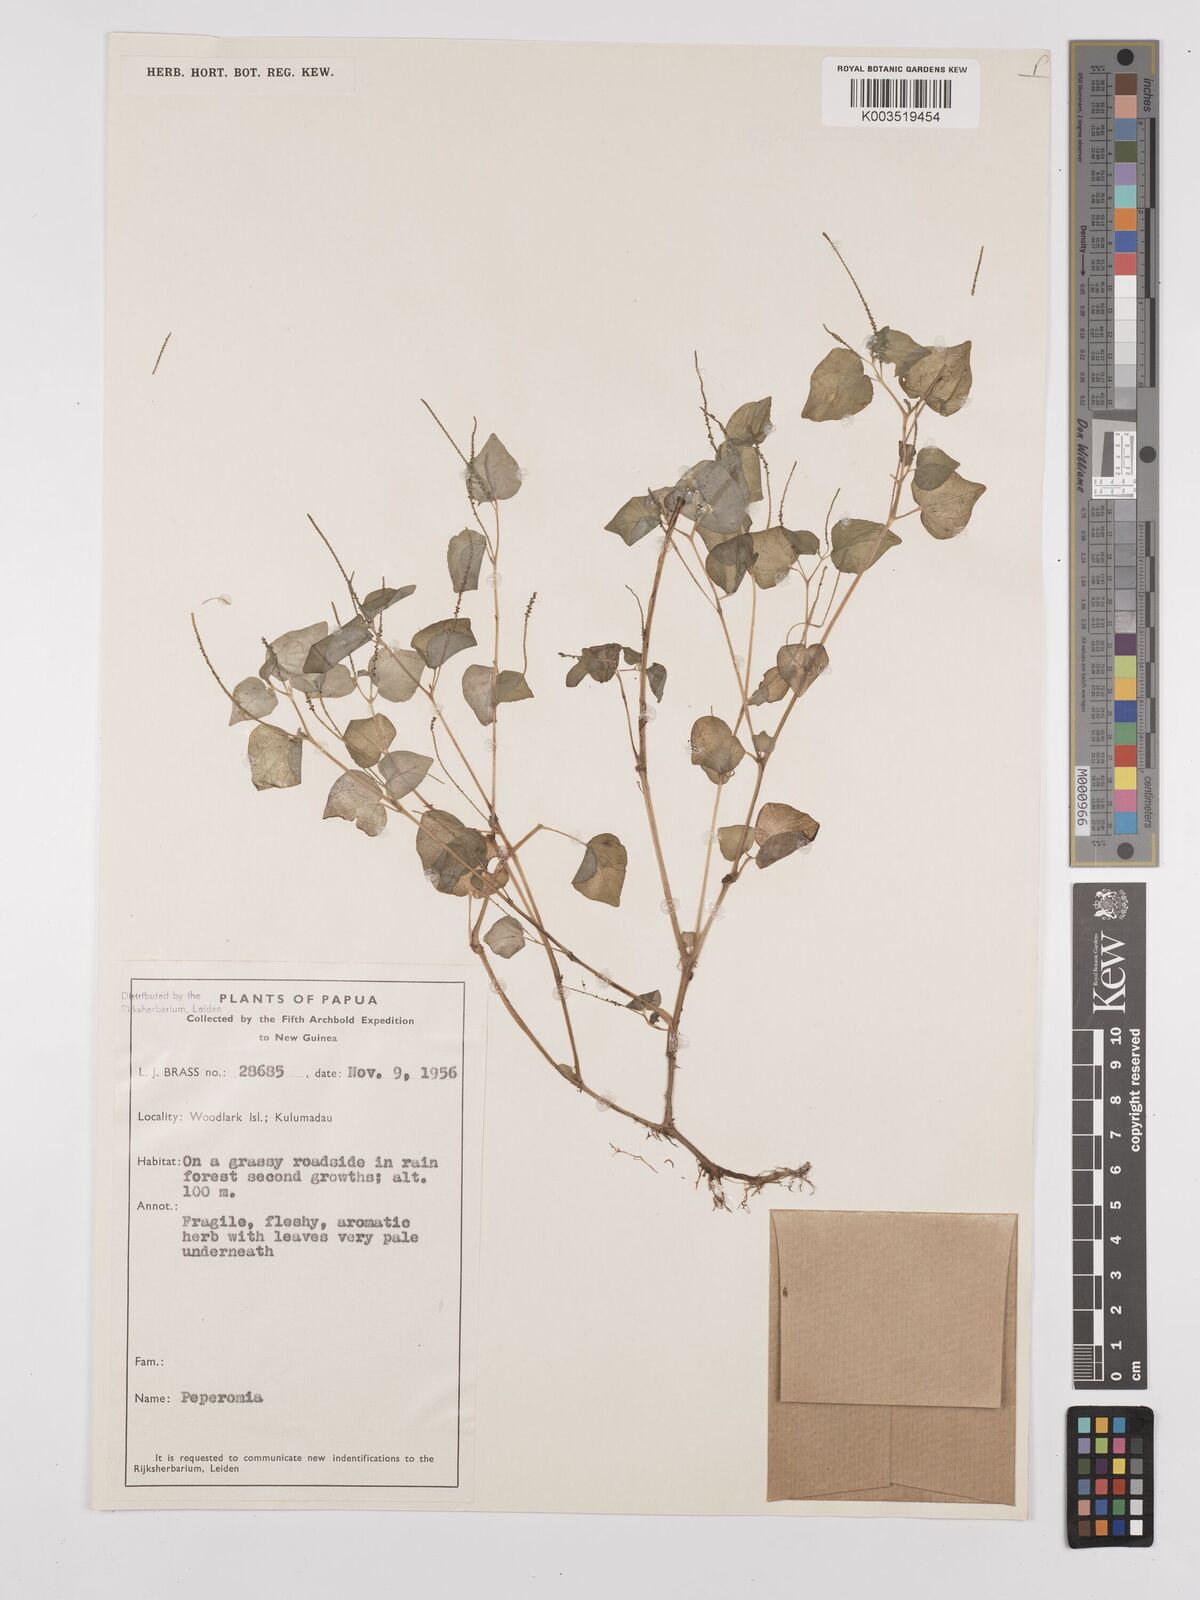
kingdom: Plantae
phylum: Tracheophyta
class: Magnoliopsida
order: Piperales
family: Piperaceae
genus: Peperomia
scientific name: Peperomia pellucida
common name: Man to man
